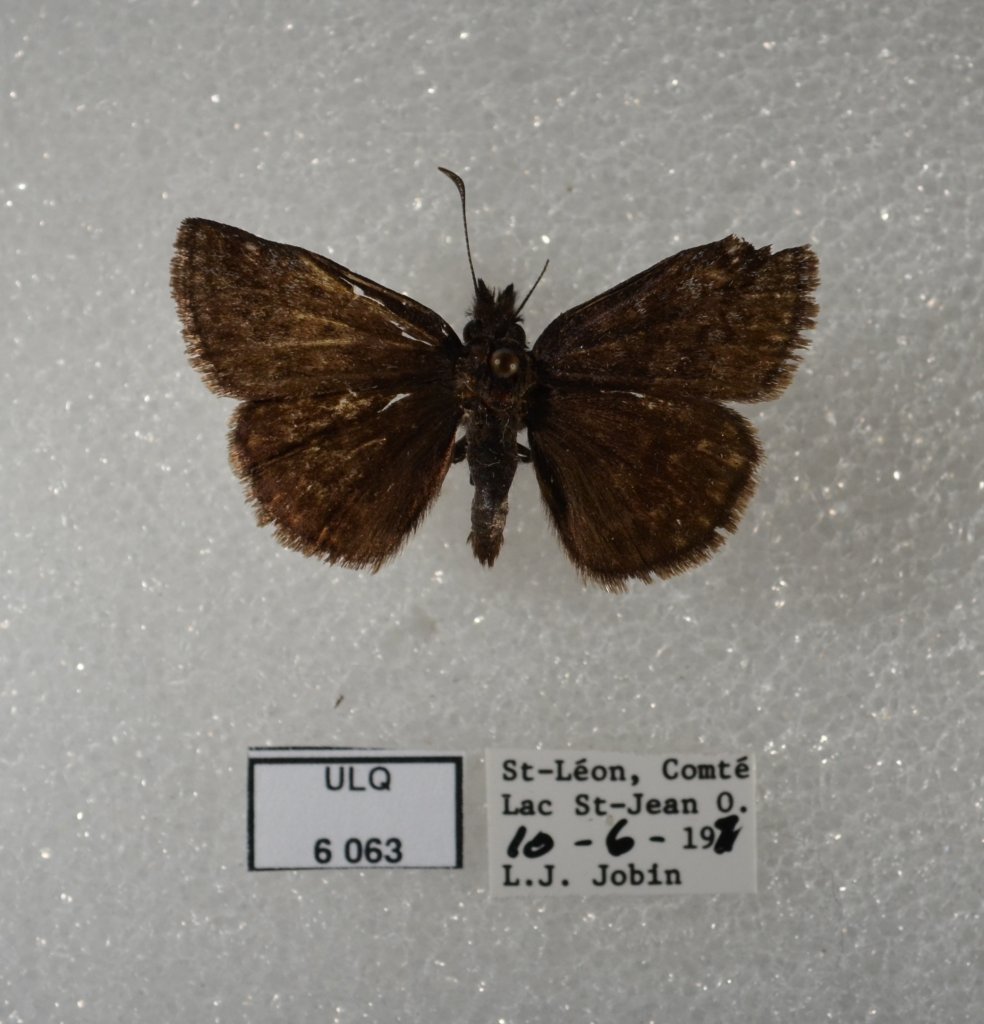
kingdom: Animalia
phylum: Arthropoda
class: Insecta
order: Lepidoptera
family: Hesperiidae
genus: Erynnis
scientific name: Erynnis icelus
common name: Dreamy Duskywing
